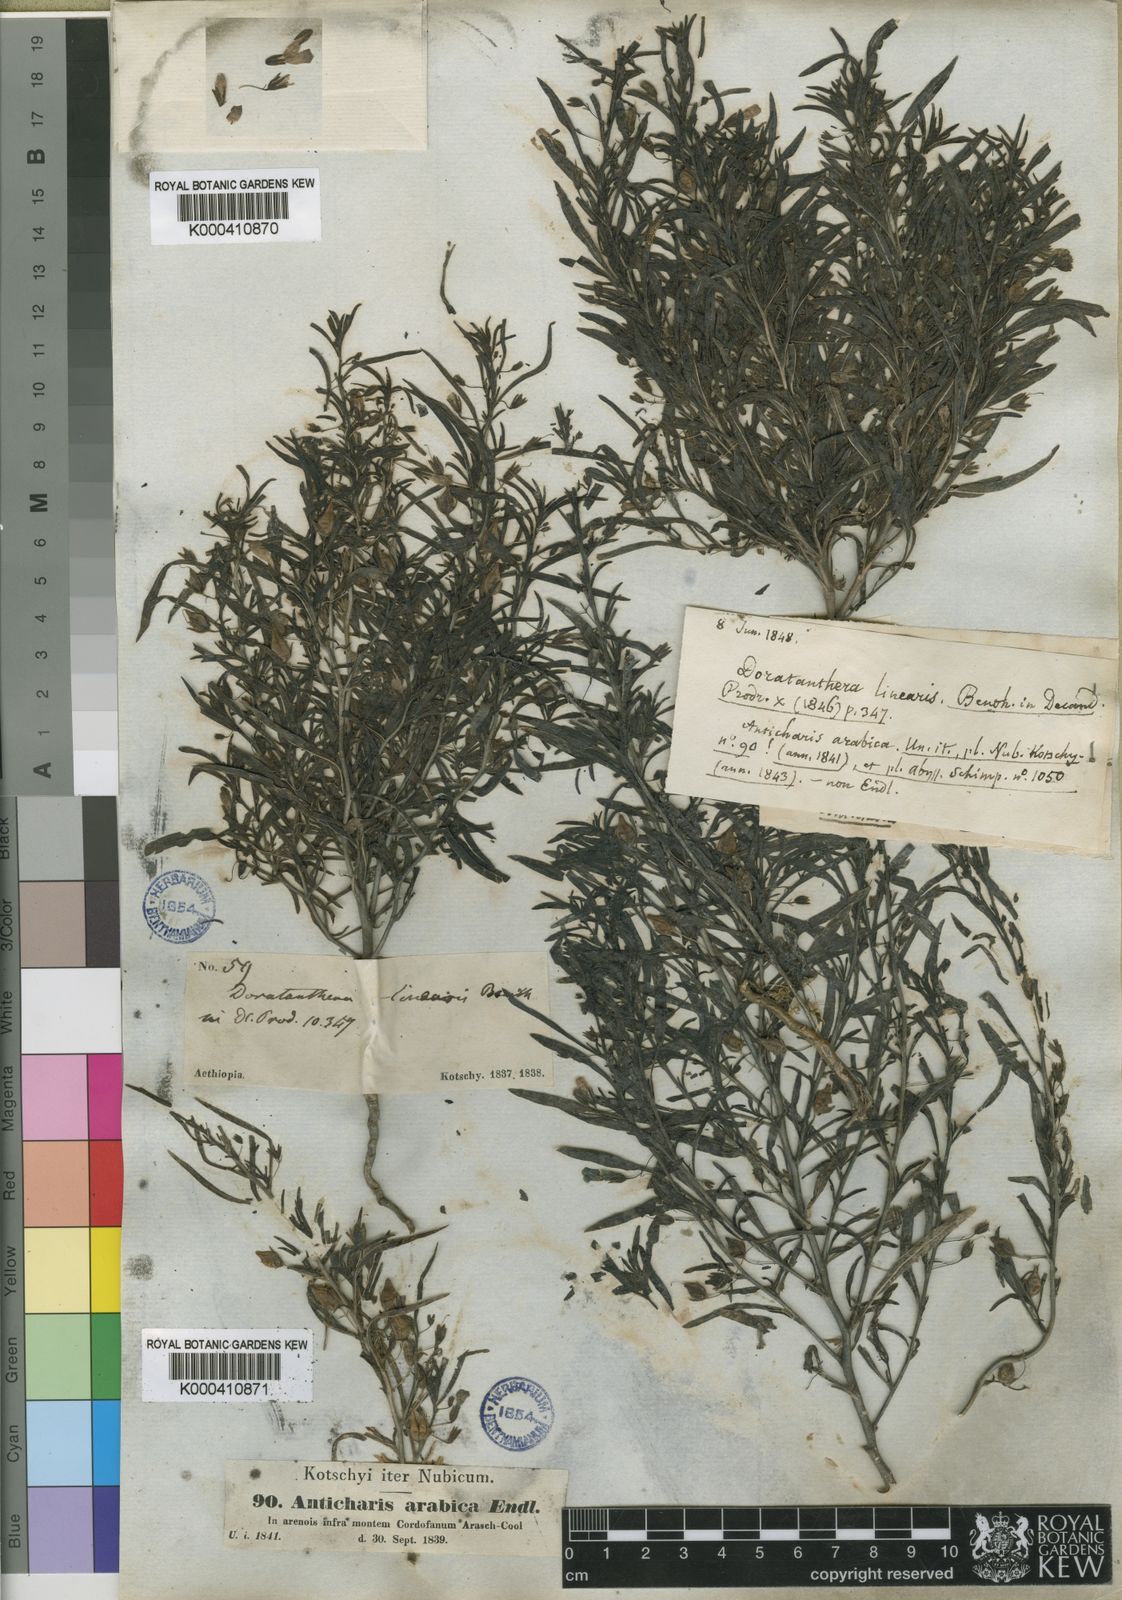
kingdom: Plantae
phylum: Tracheophyta
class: Magnoliopsida
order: Lamiales
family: Scrophulariaceae
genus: Anticharis
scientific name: Anticharis
